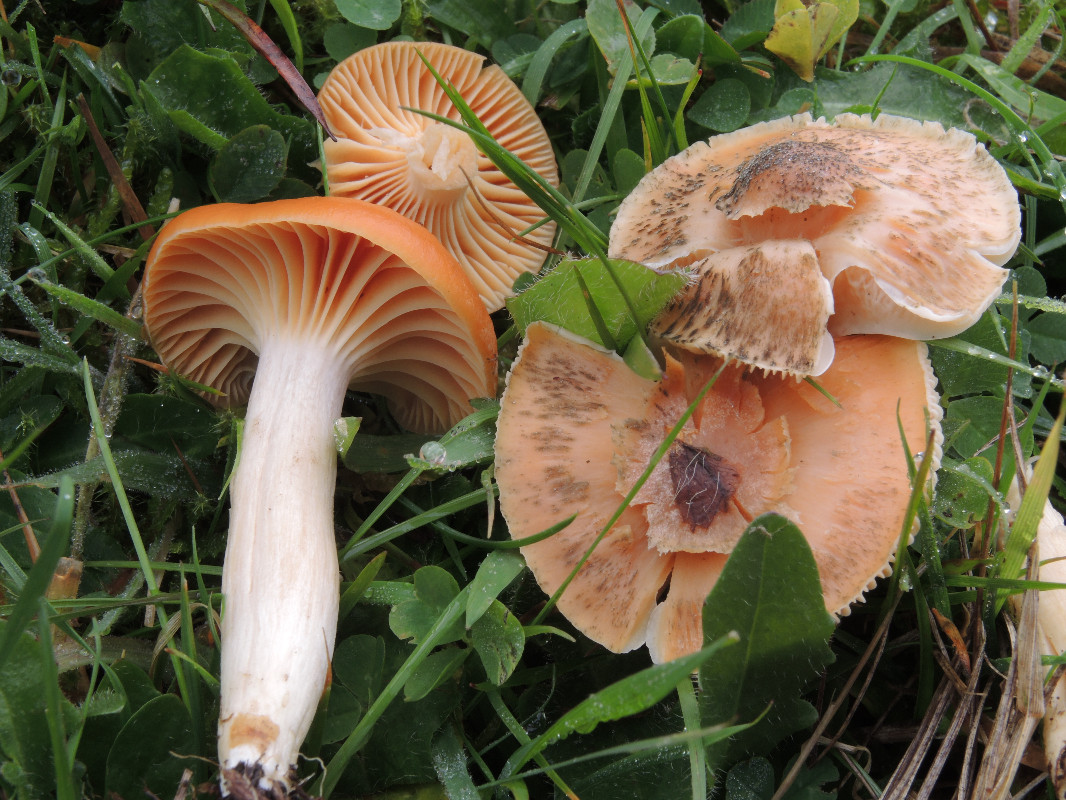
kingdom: Fungi
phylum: Basidiomycota
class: Agaricomycetes
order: Agaricales
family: Hygrophoraceae
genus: Cuphophyllus
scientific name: Cuphophyllus pratensis
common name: eng-vokshat
